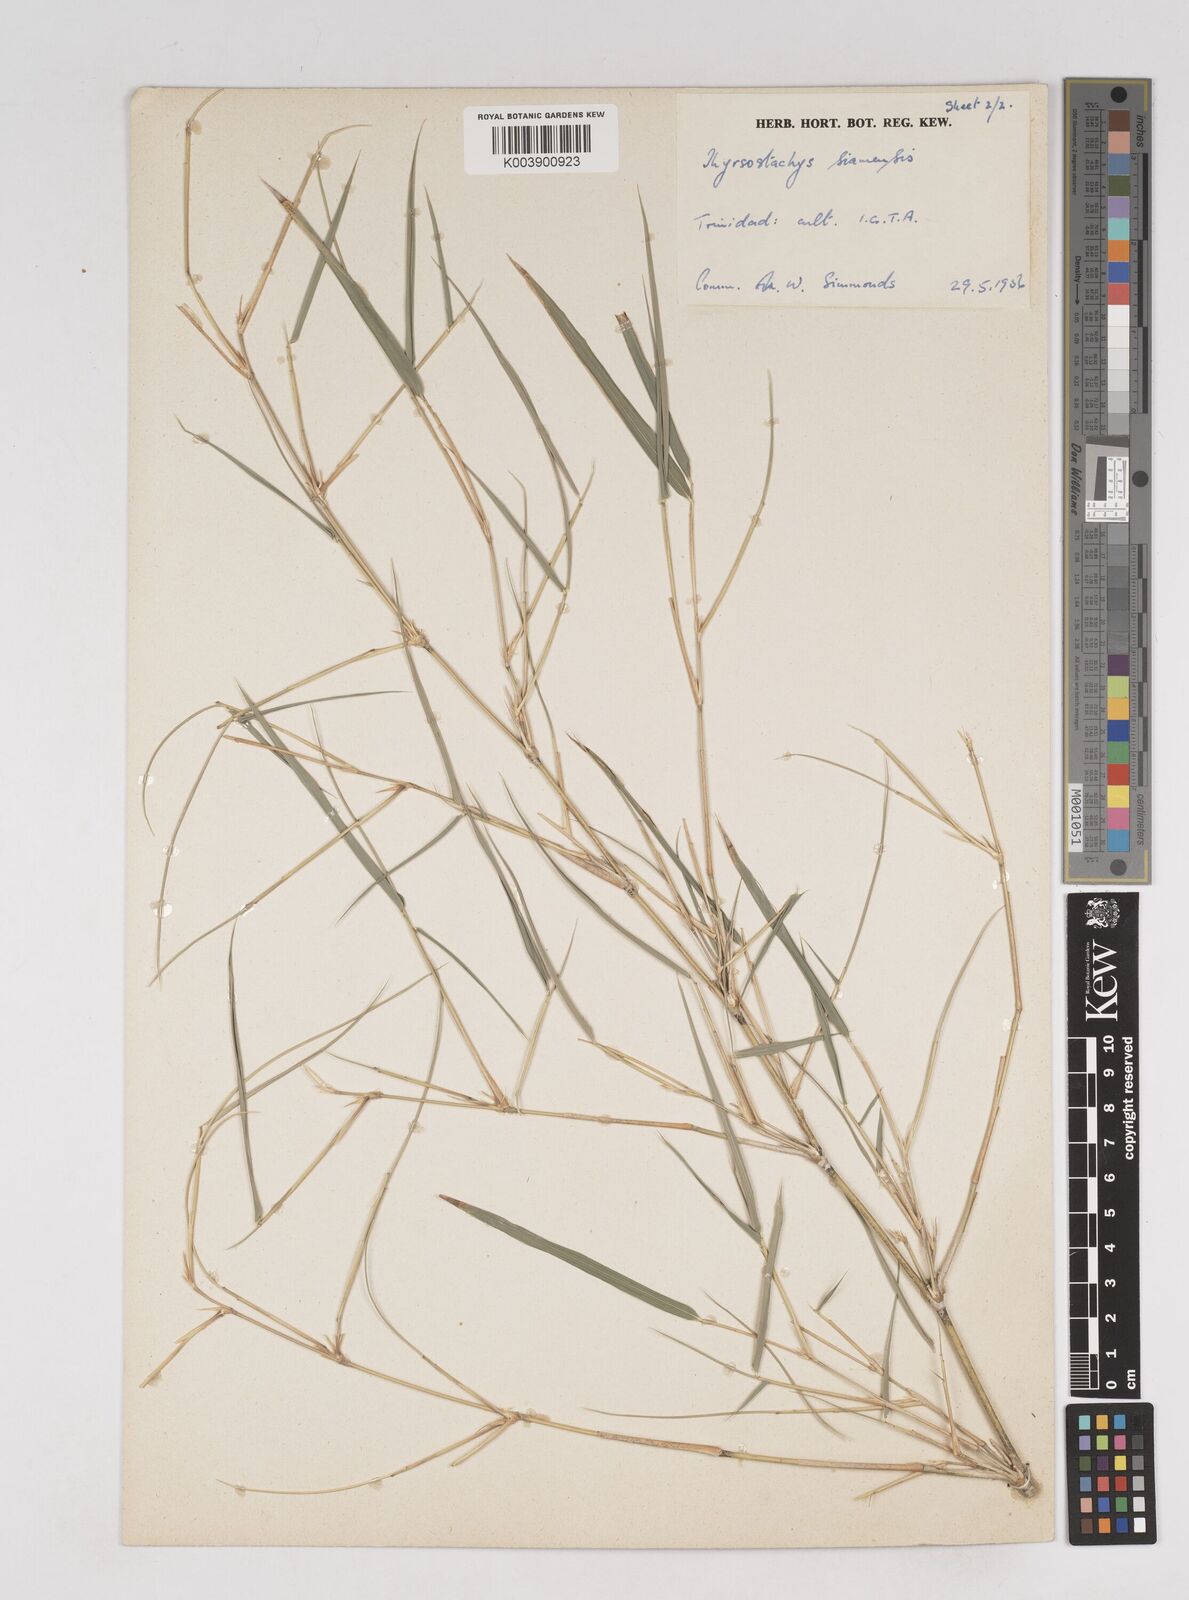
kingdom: Plantae
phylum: Tracheophyta
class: Liliopsida
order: Poales
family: Poaceae
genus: Thyrsostachys
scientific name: Thyrsostachys siamensis
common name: Thailand bamboo
